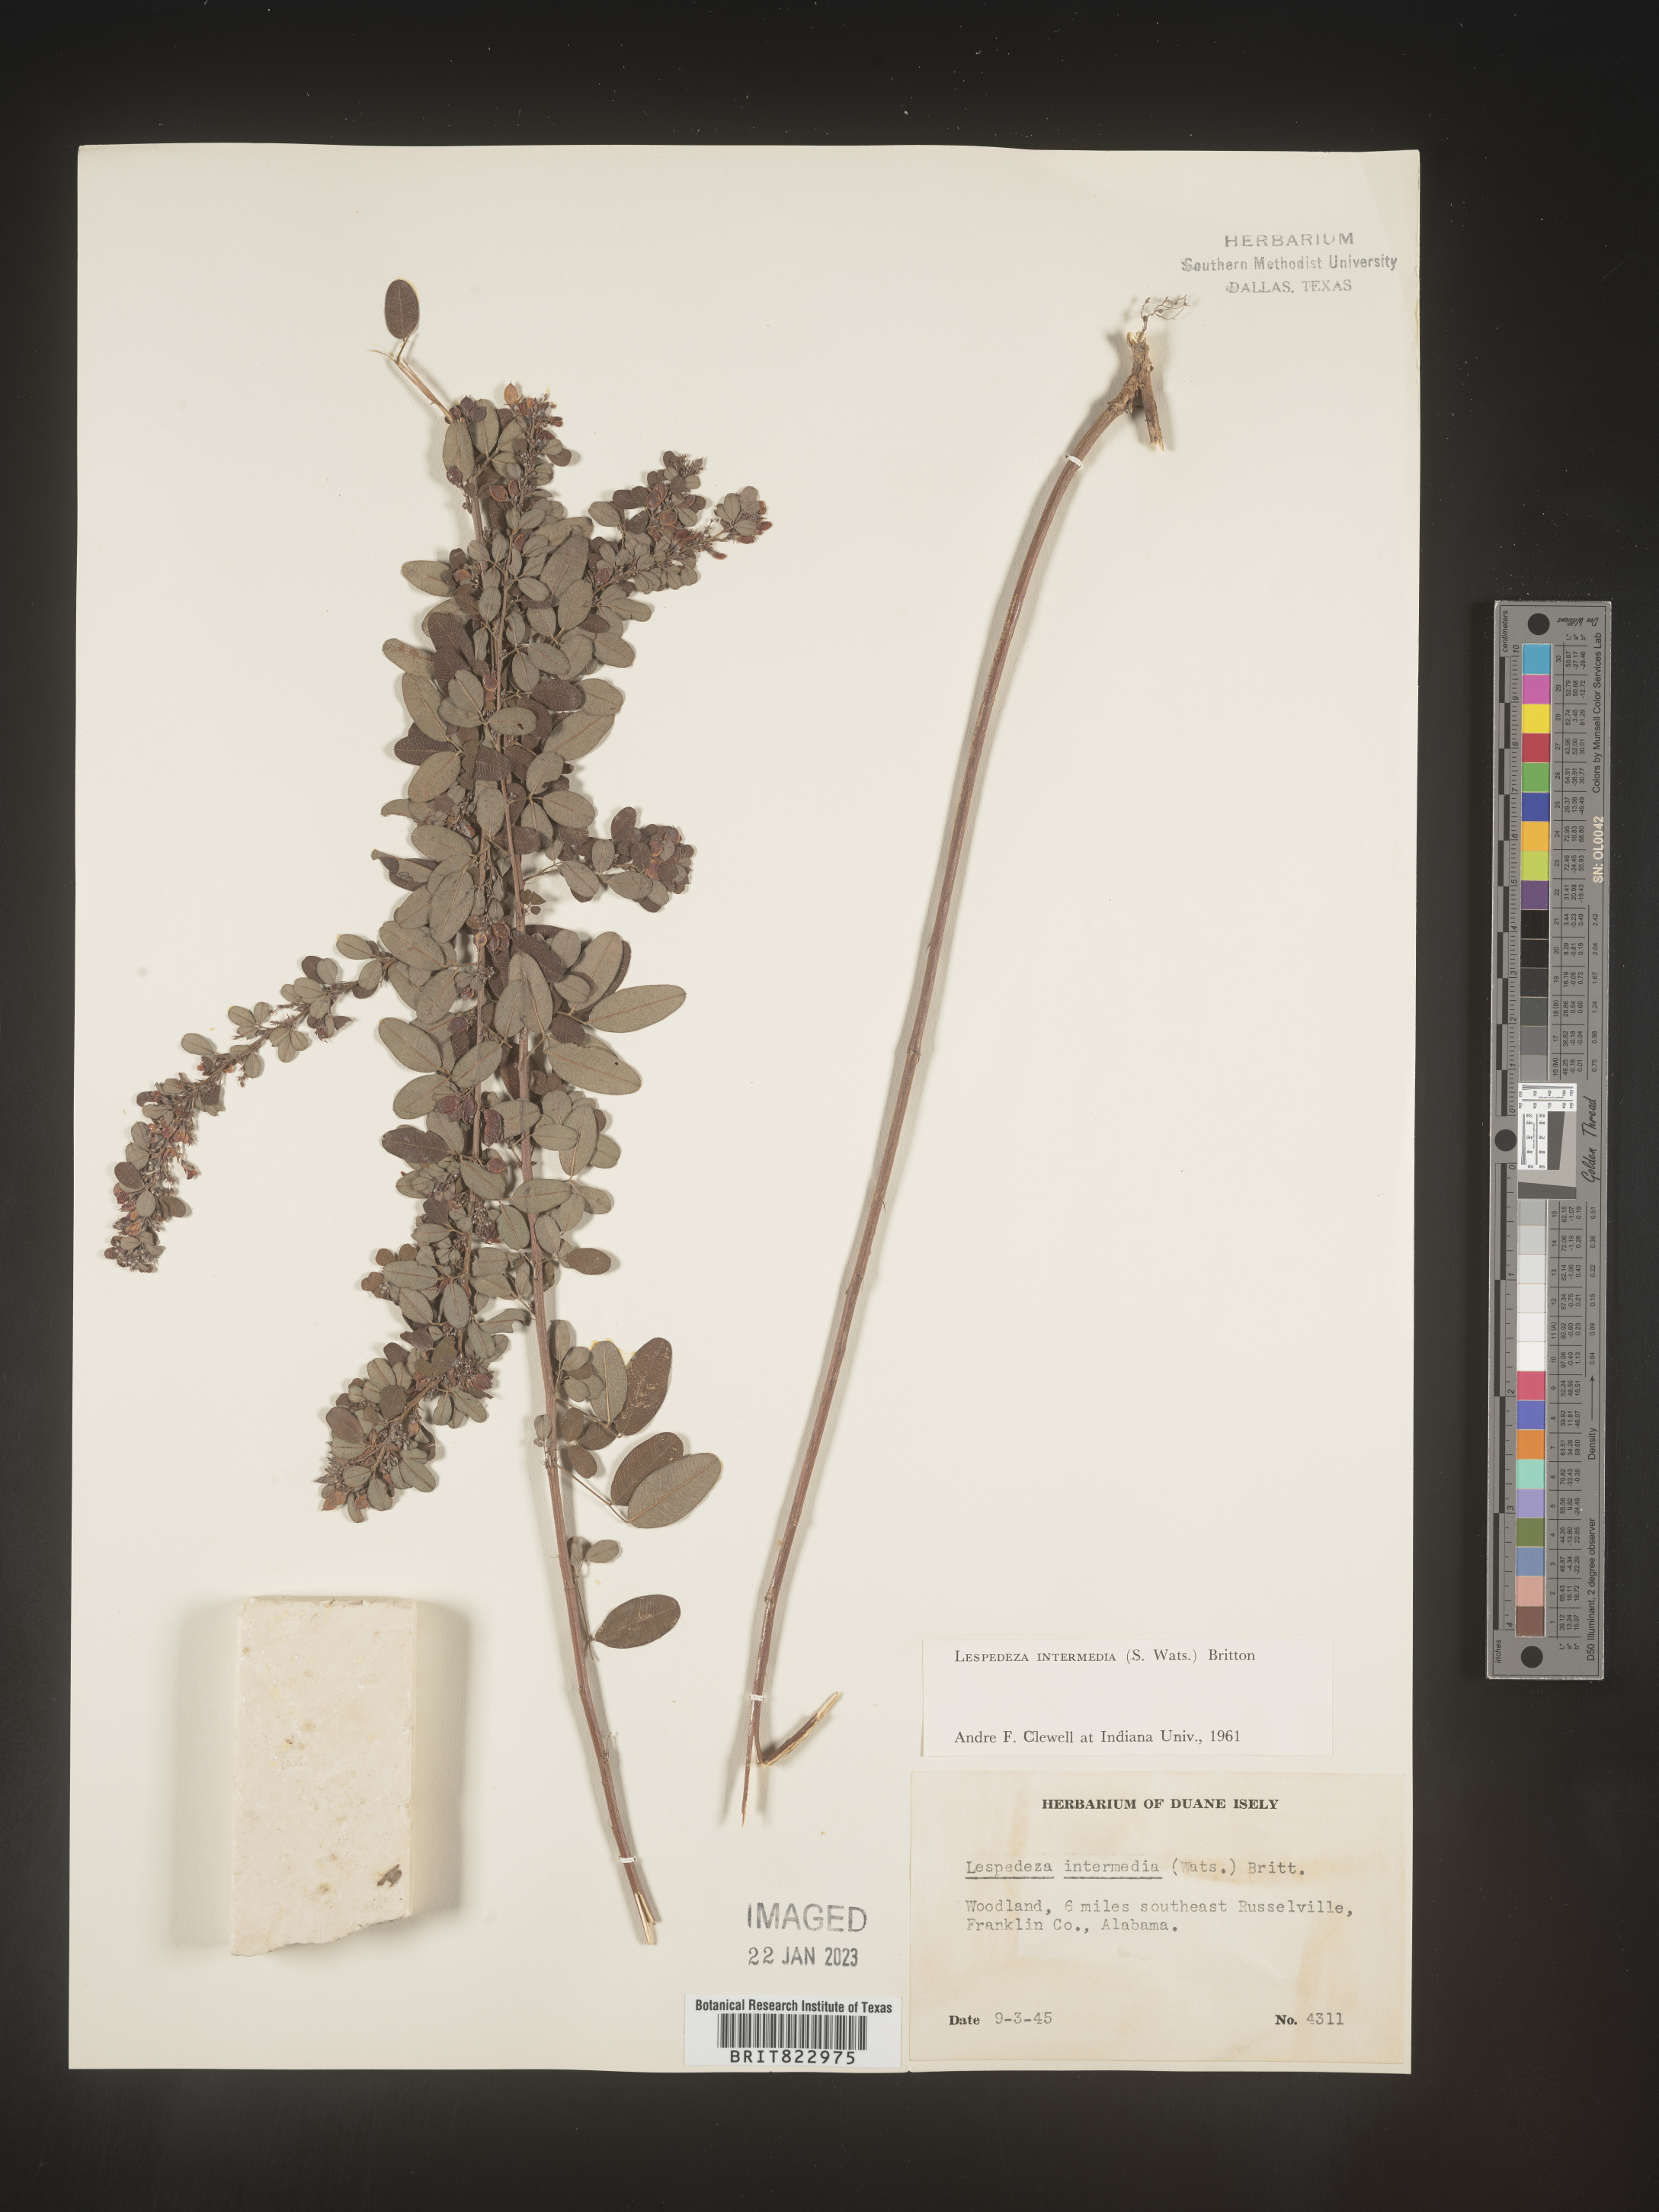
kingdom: Plantae
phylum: Tracheophyta
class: Magnoliopsida
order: Fabales
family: Fabaceae
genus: Lespedeza
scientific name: Lespedeza
